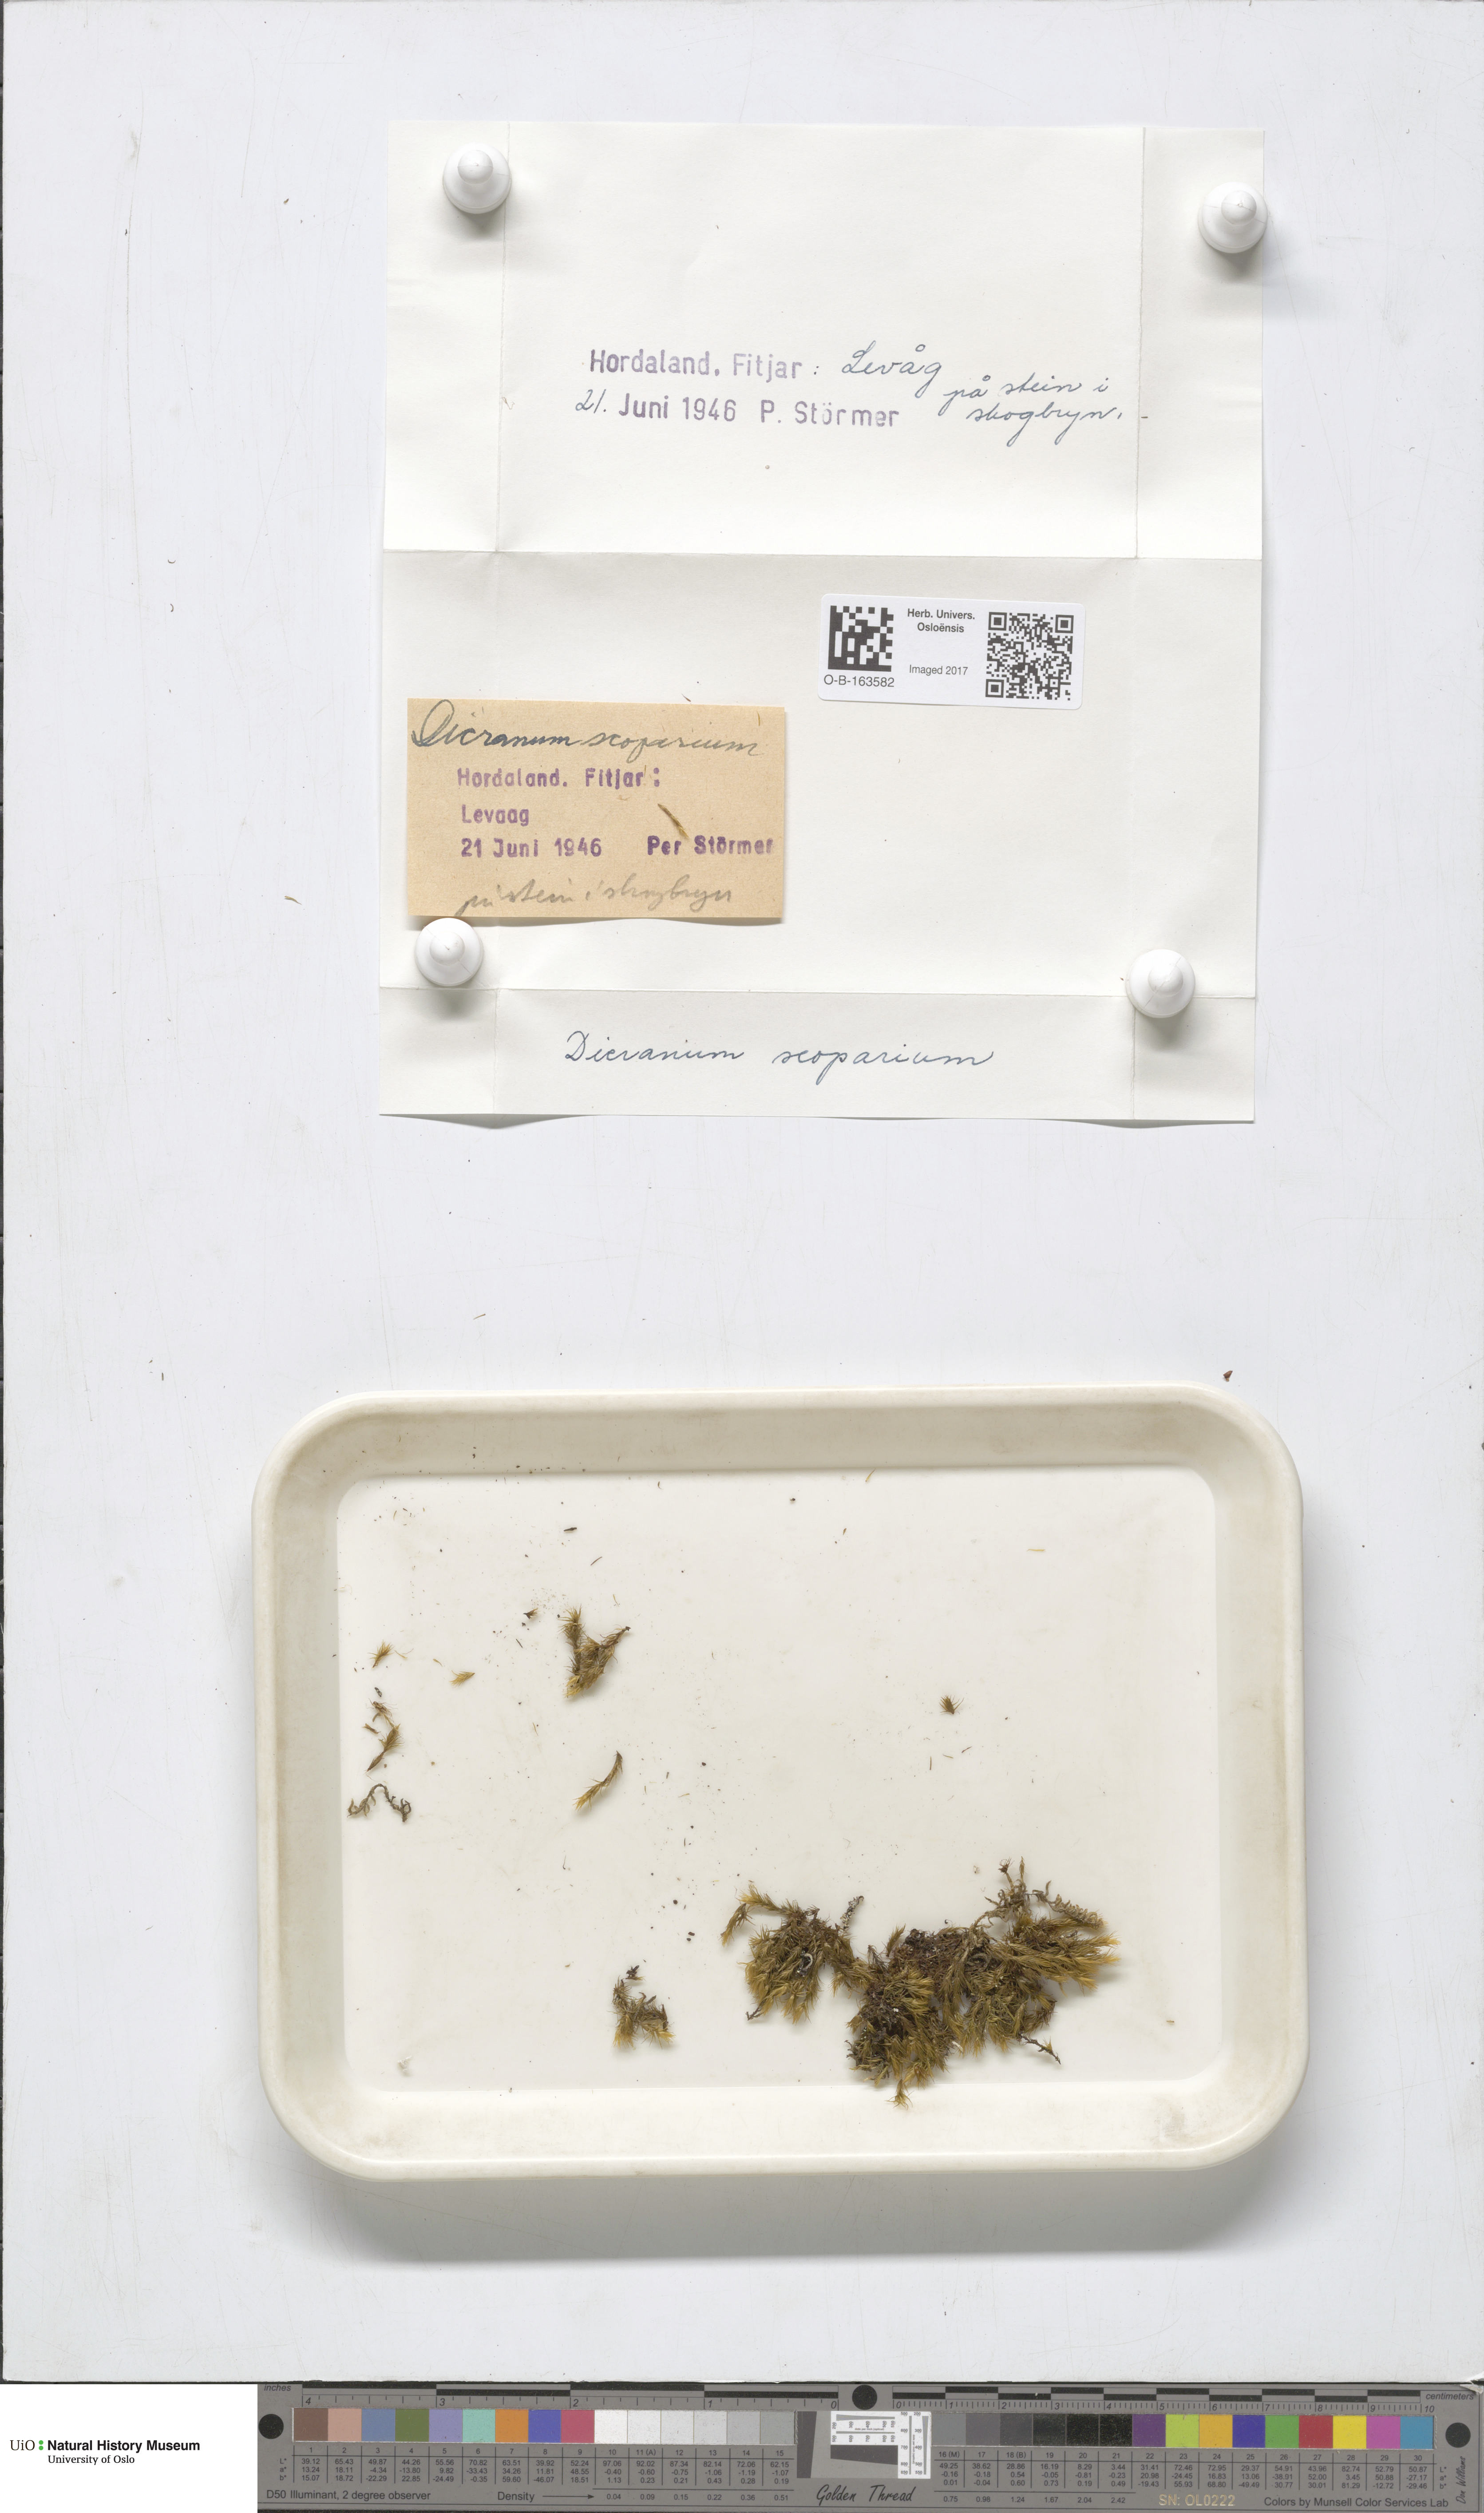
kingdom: Plantae
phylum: Bryophyta
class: Bryopsida
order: Dicranales
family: Dicranaceae
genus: Dicranum
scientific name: Dicranum scoparium
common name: Broom fork-moss
